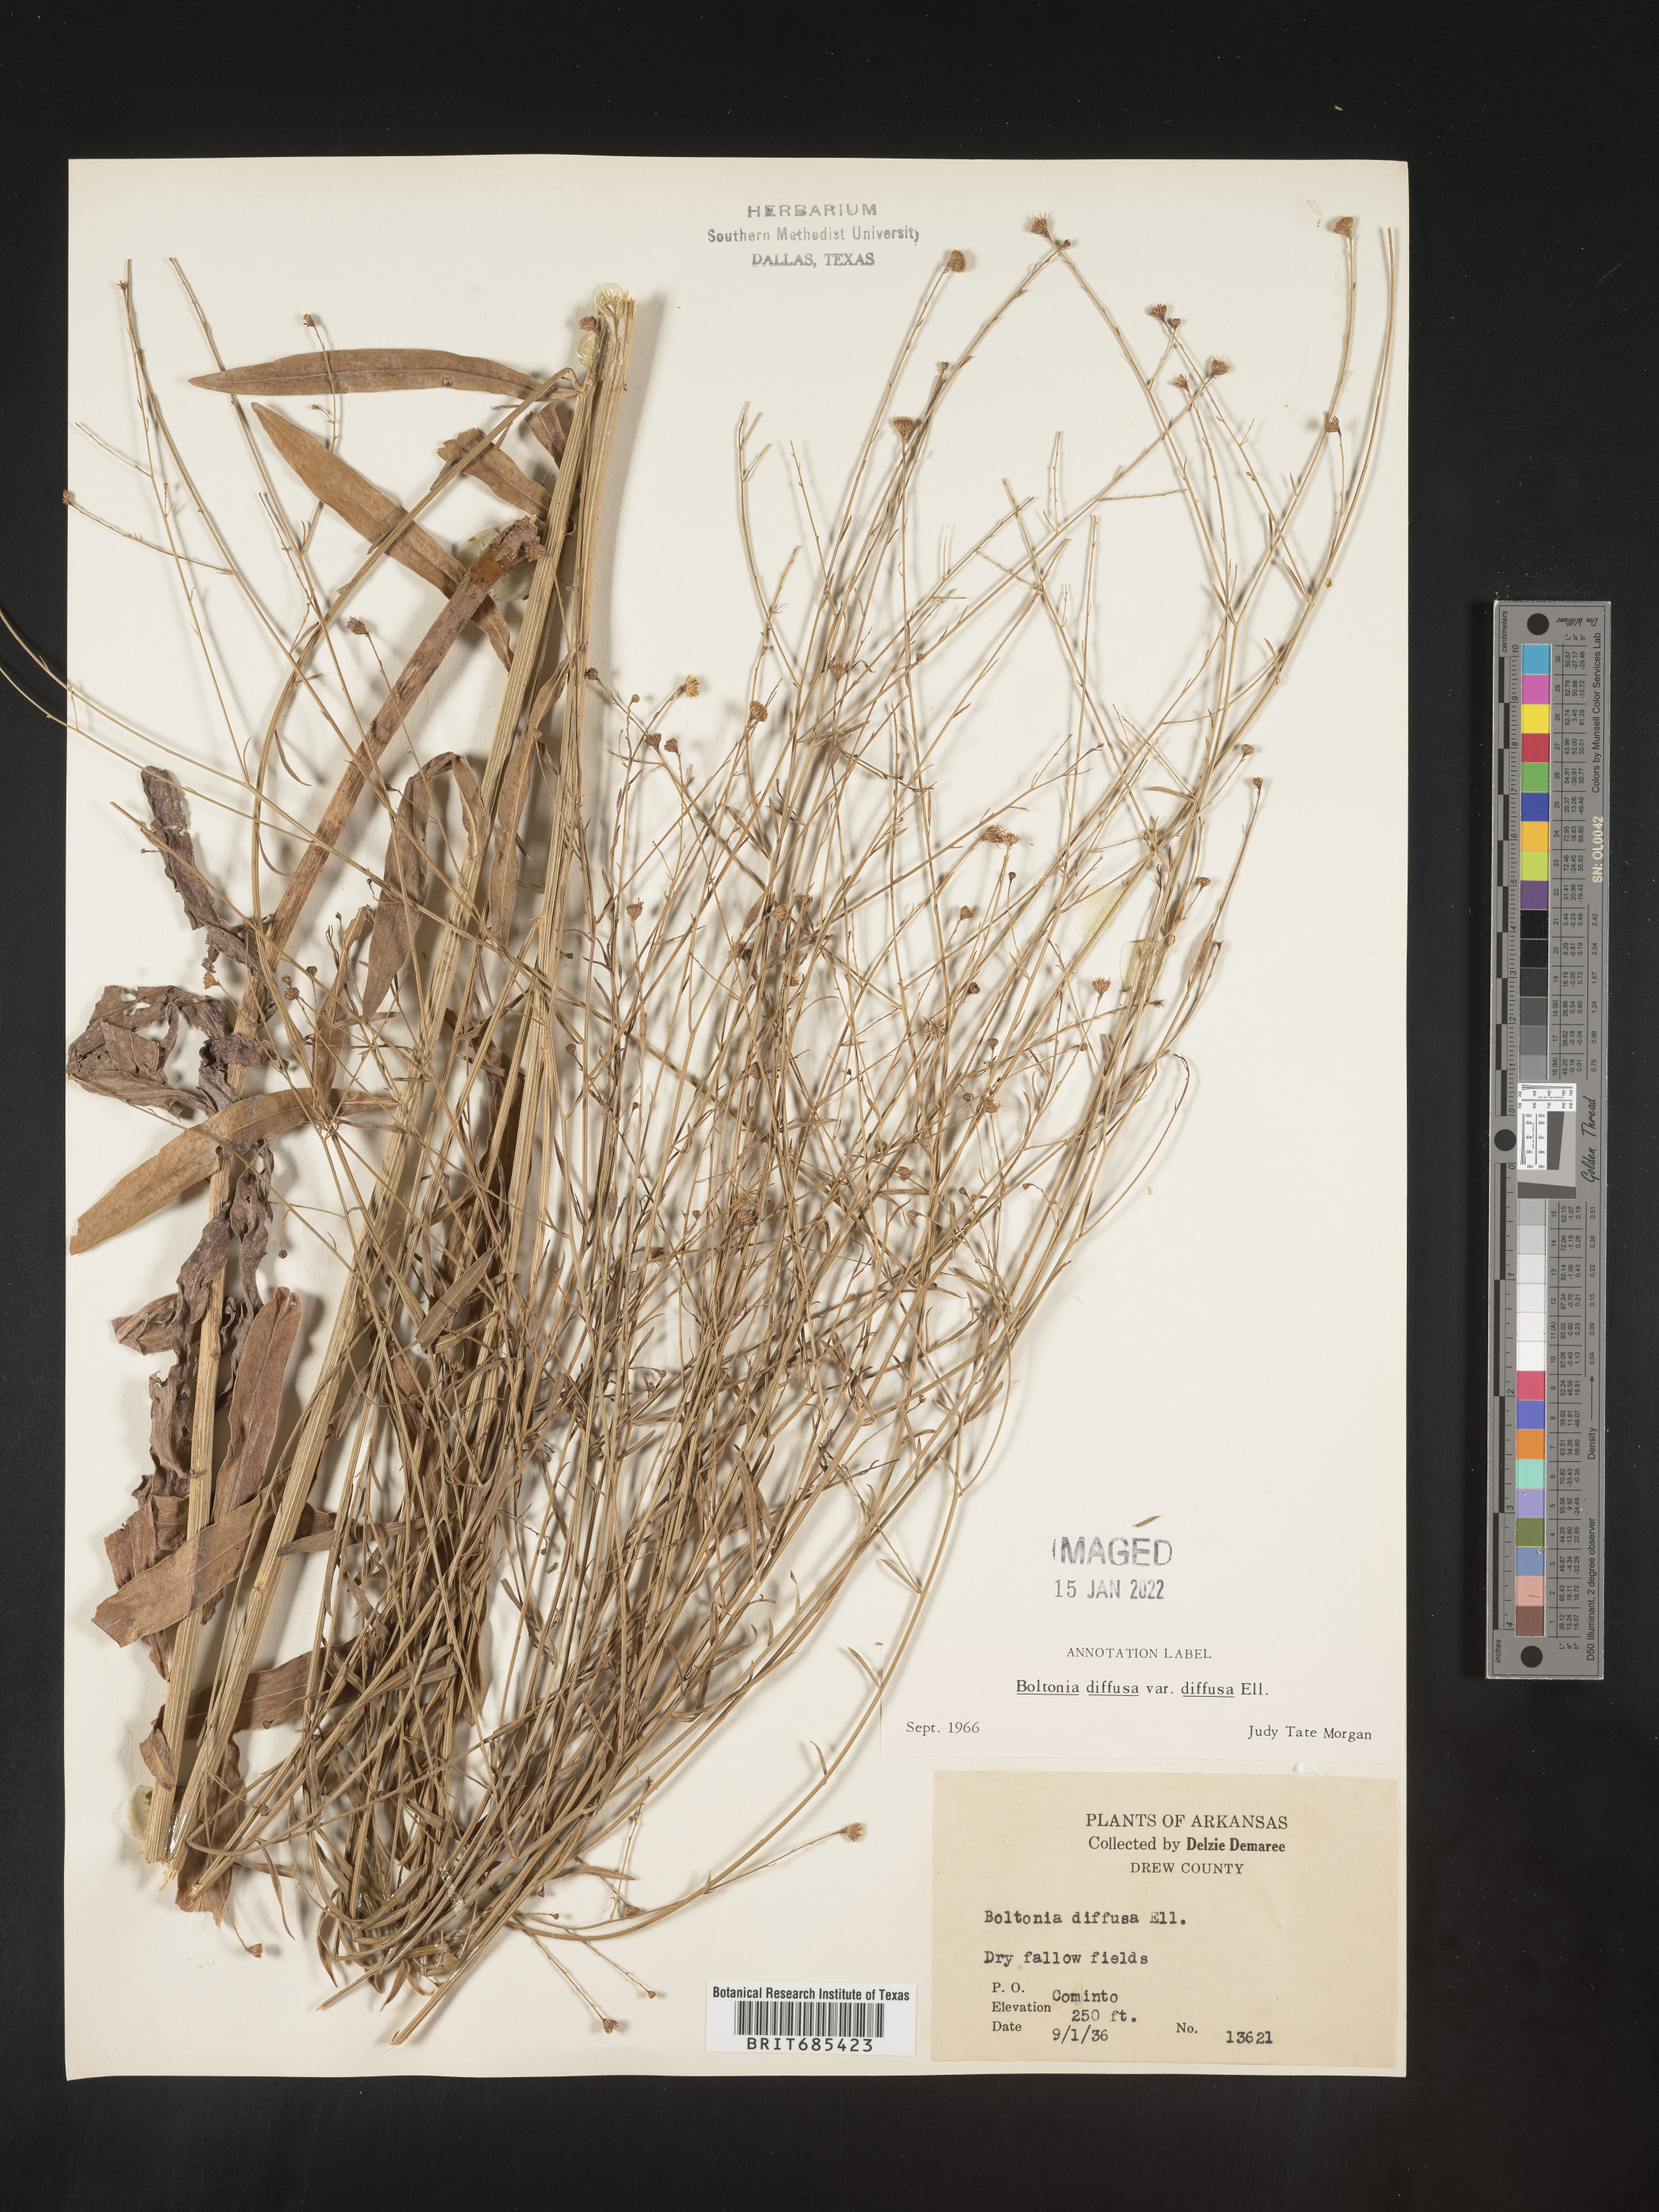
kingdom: Plantae
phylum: Tracheophyta
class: Magnoliopsida
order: Asterales
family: Asteraceae
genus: Boltonia
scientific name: Boltonia diffusa
